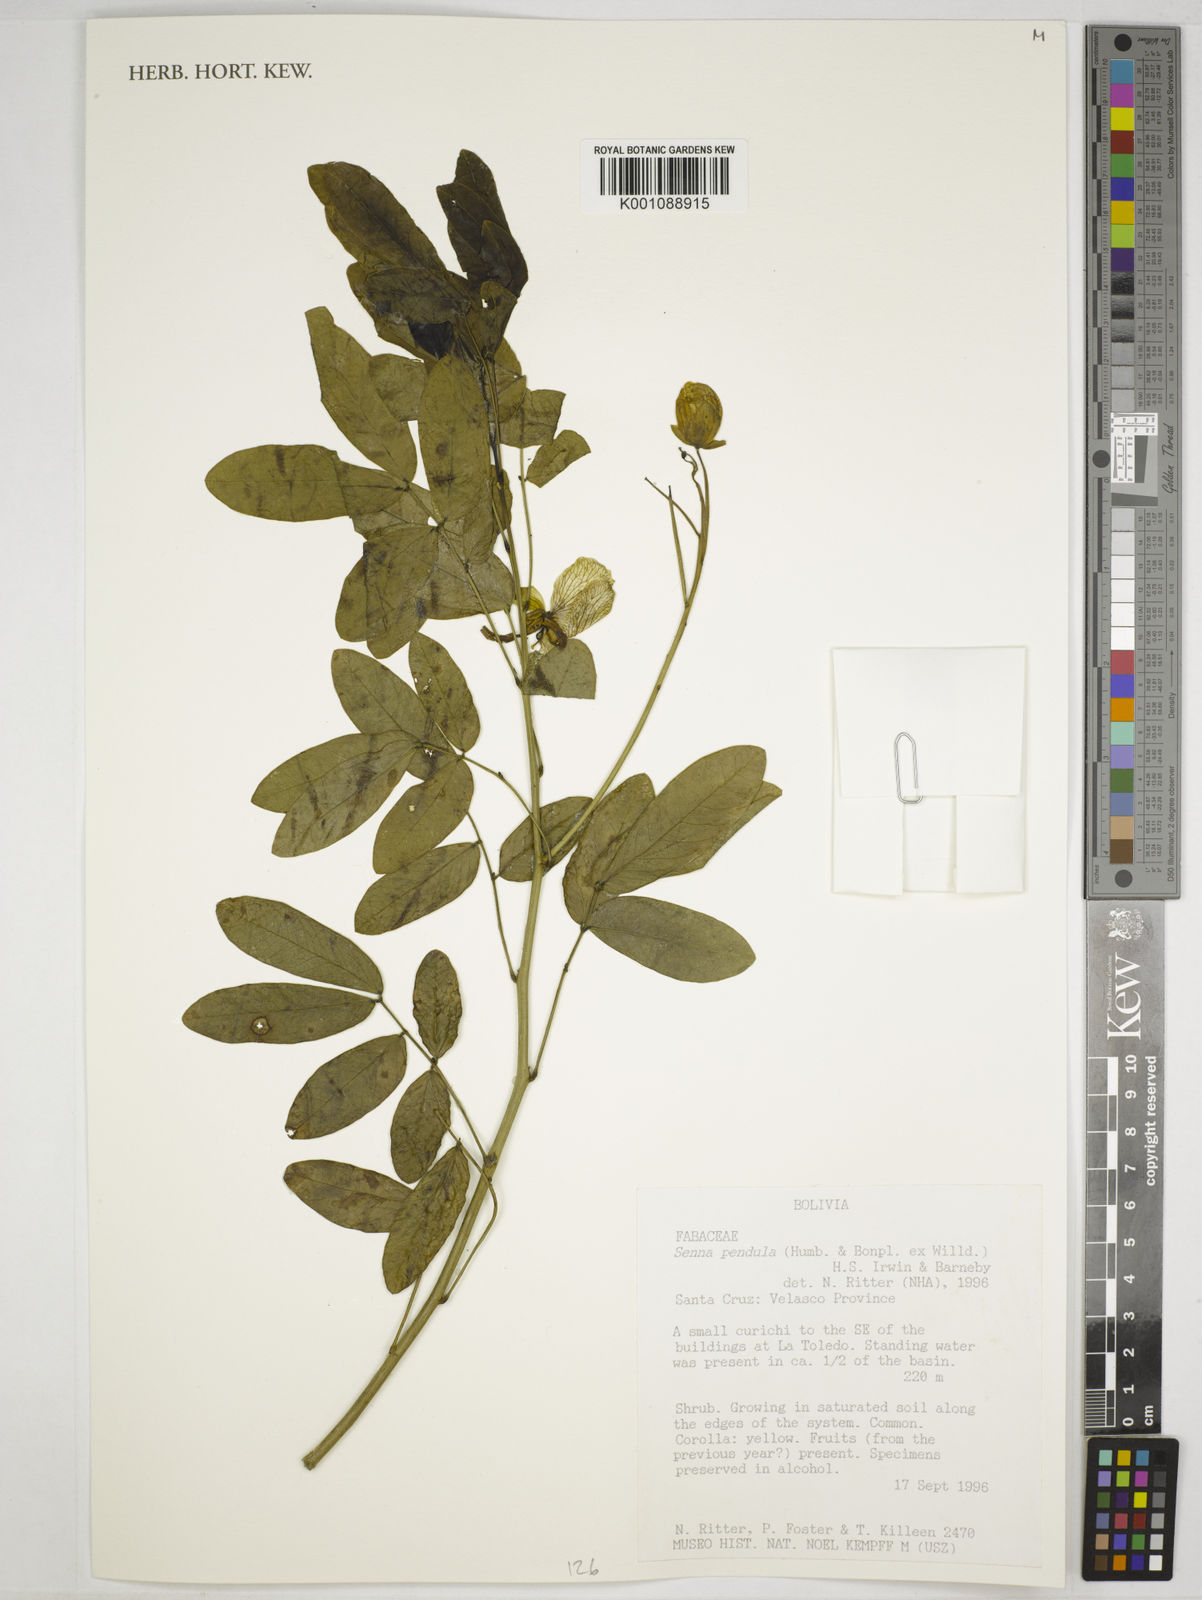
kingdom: Plantae
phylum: Tracheophyta
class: Magnoliopsida
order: Fabales
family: Fabaceae
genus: Senna
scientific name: Senna pendula
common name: Easter cassia
